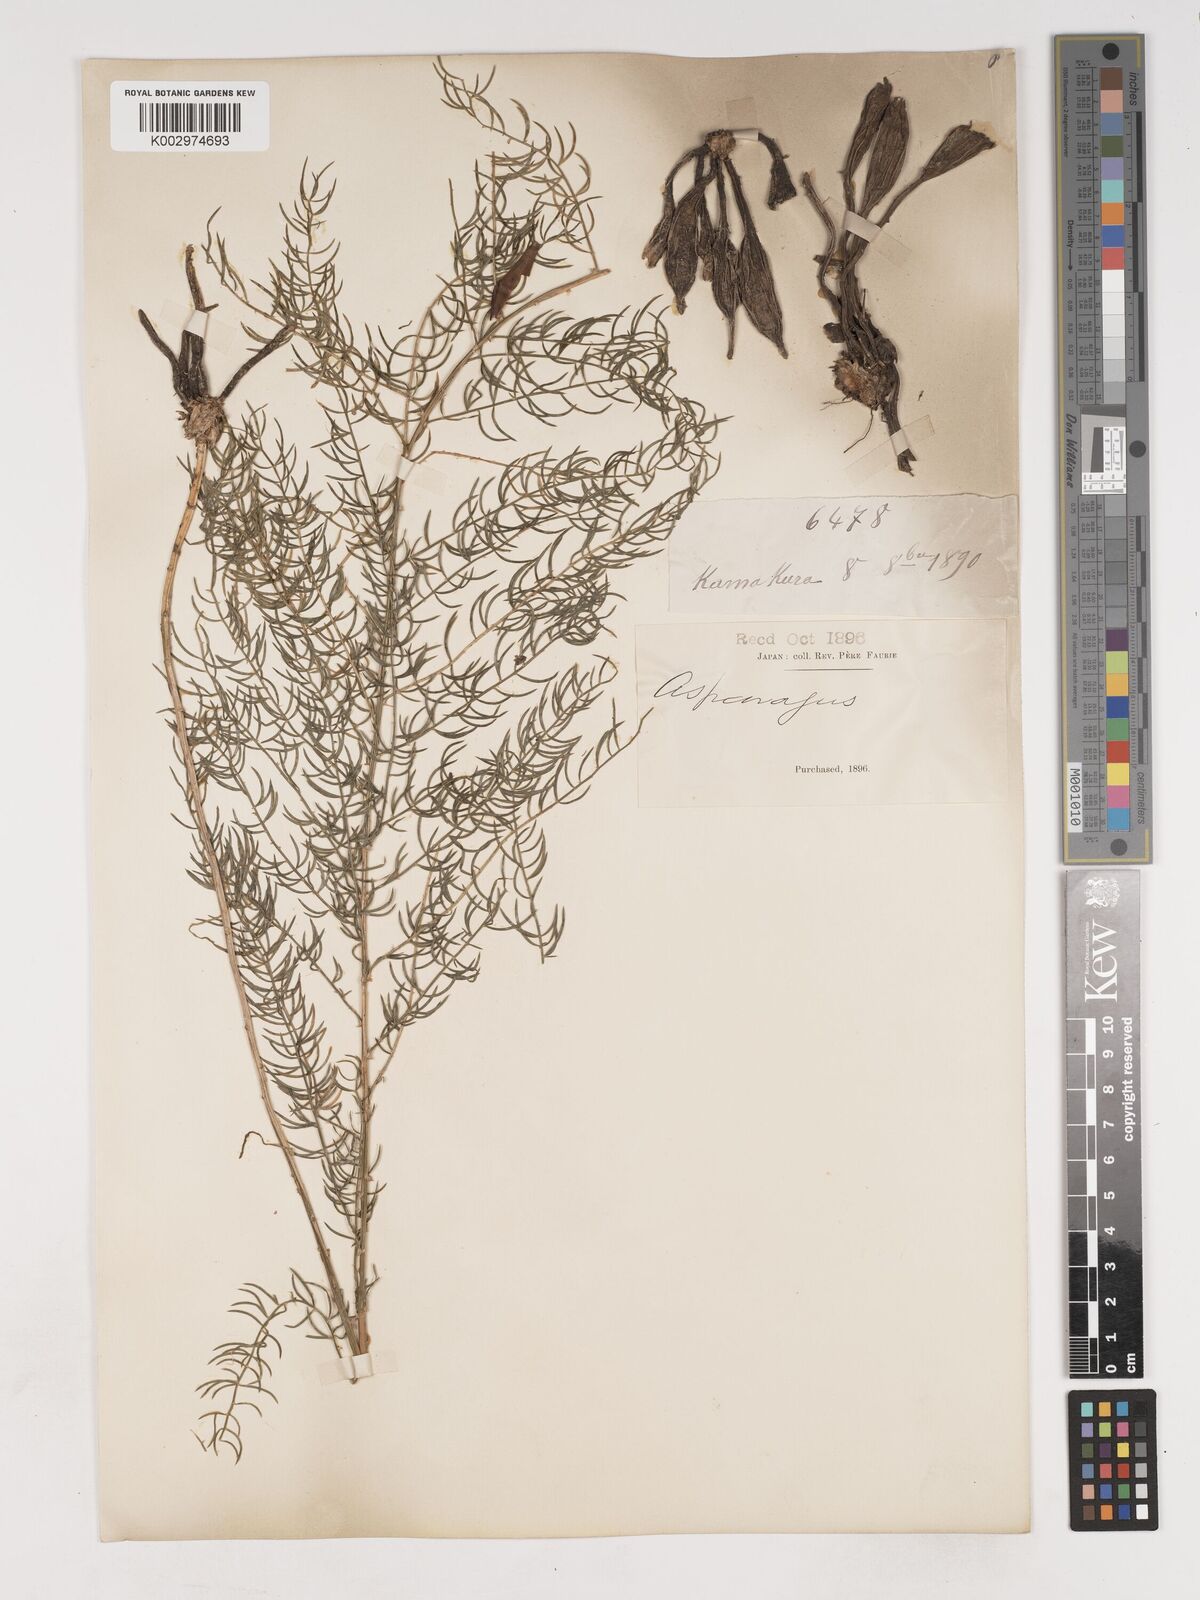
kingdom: Plantae
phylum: Tracheophyta
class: Liliopsida
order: Asparagales
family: Asparagaceae
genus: Asparagus
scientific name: Asparagus schoberioides
